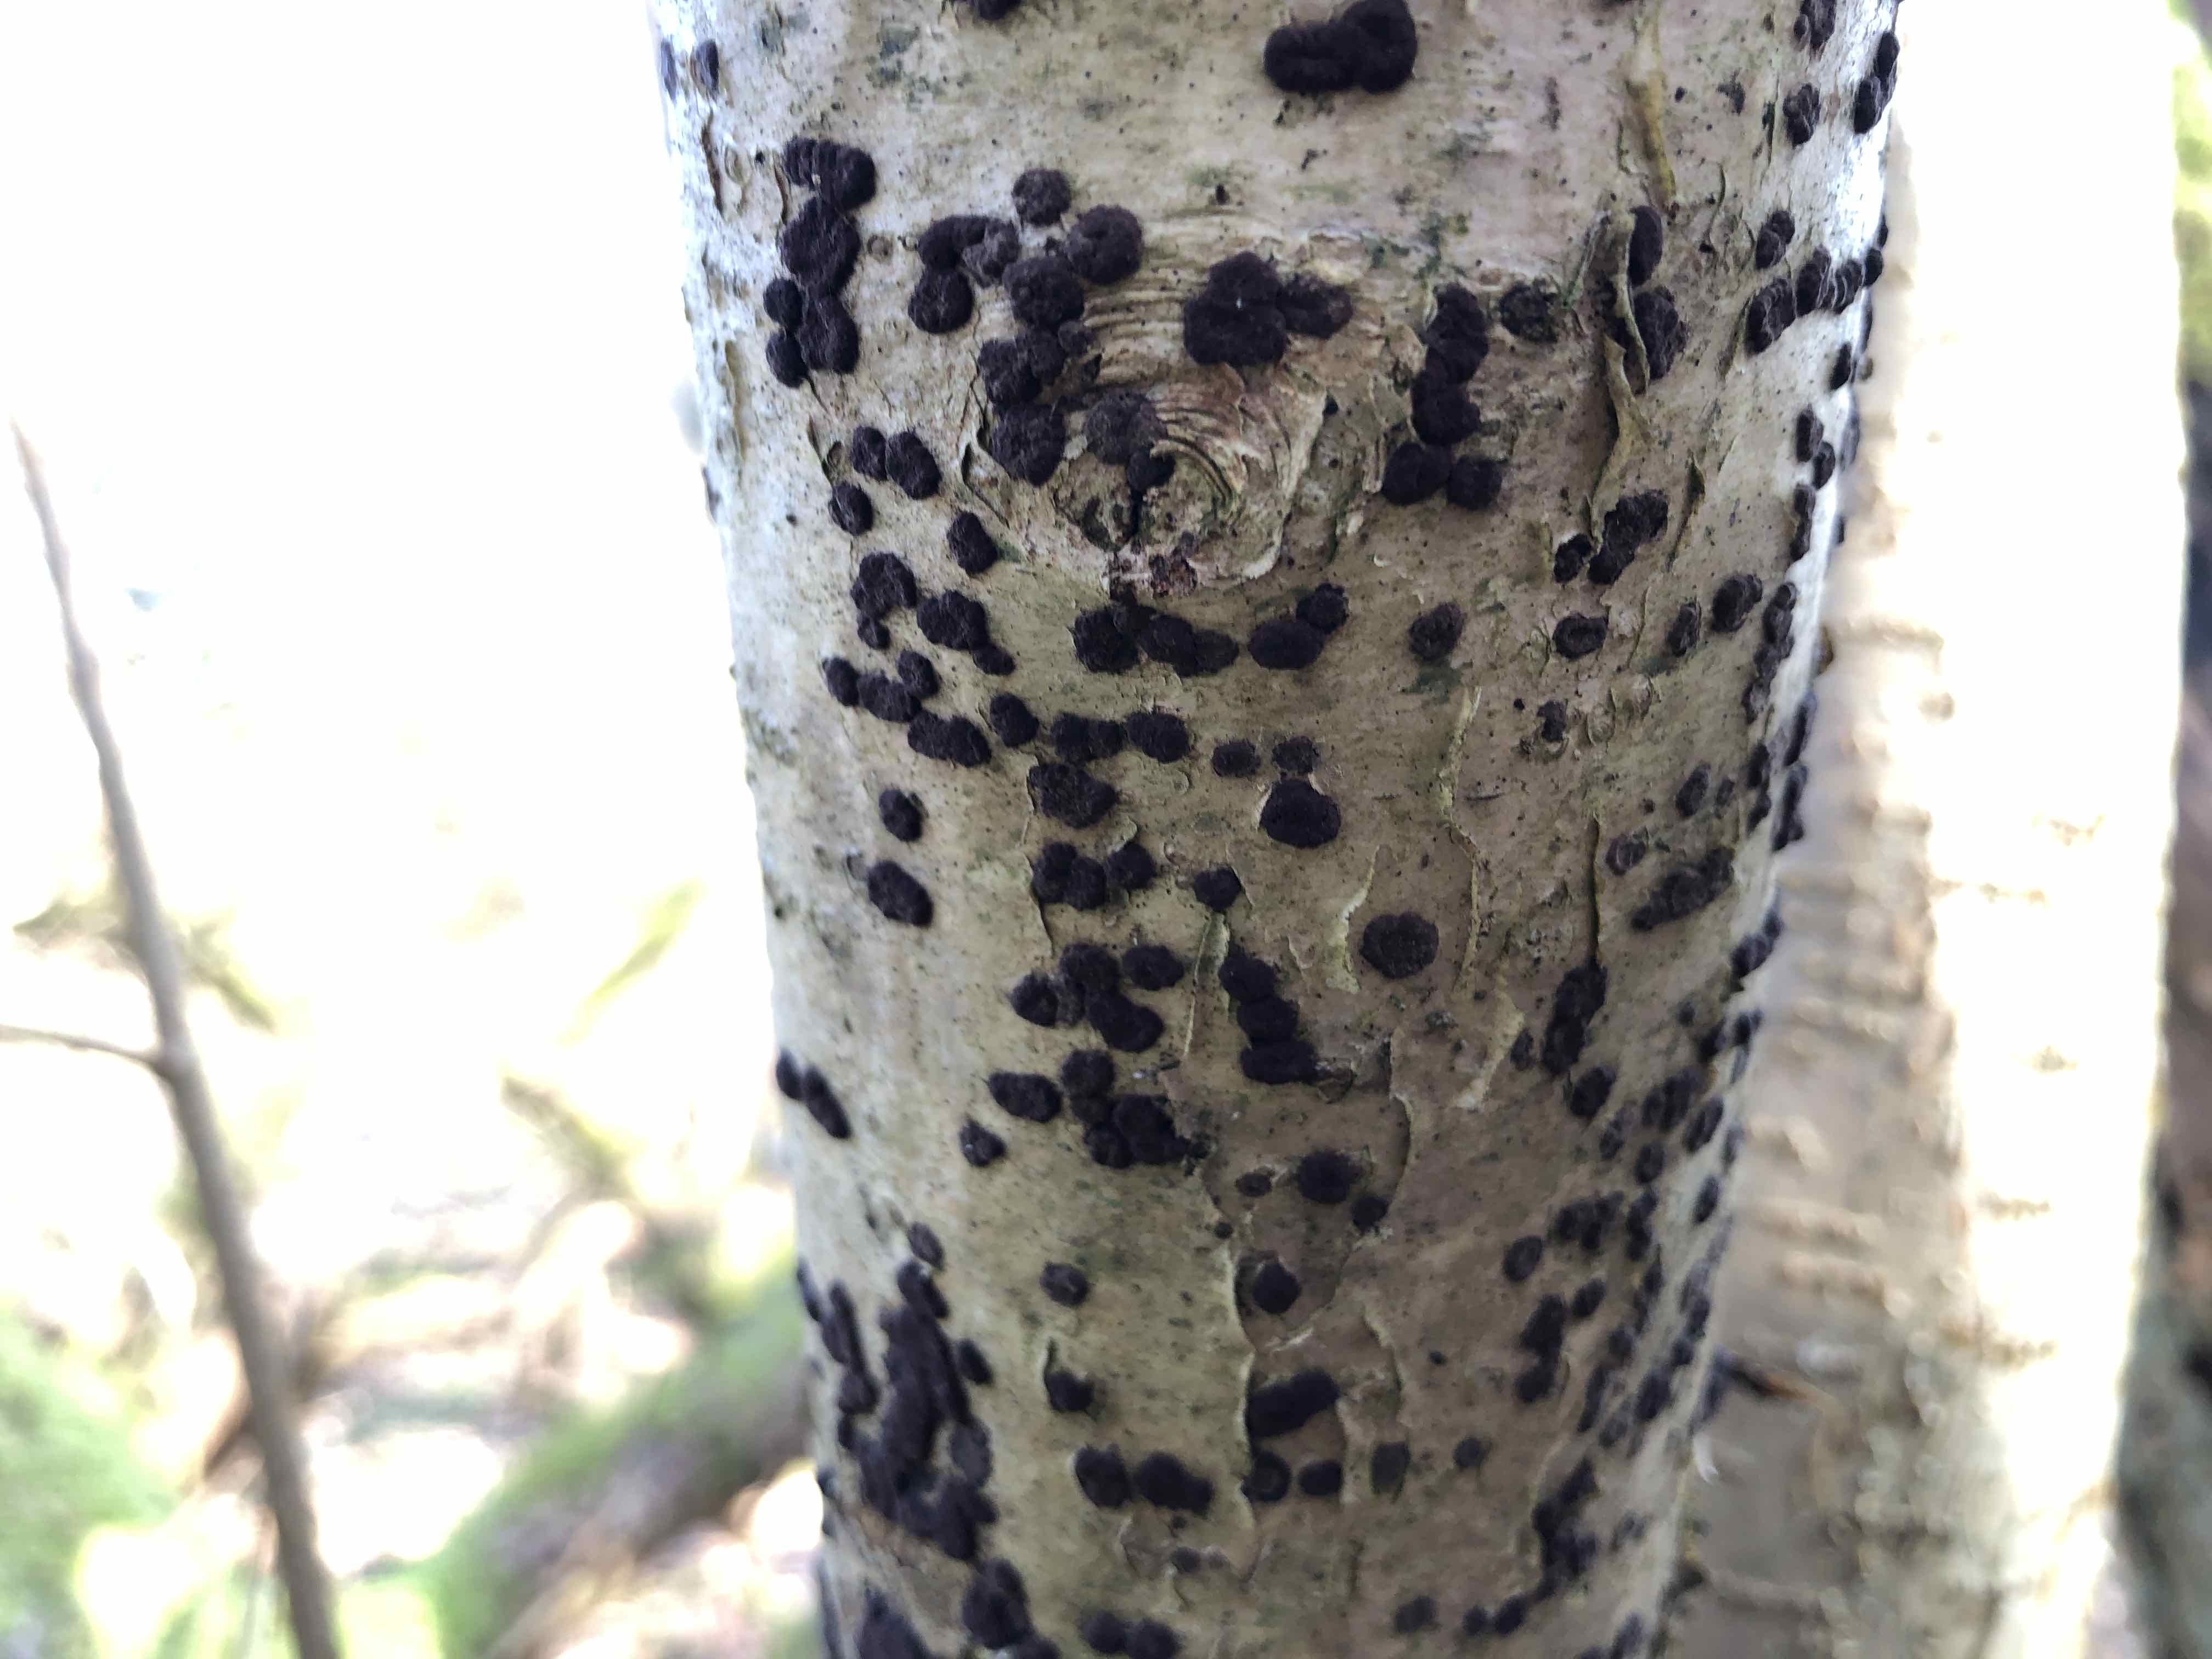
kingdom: Fungi
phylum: Ascomycota
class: Sordariomycetes
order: Xylariales
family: Hypoxylaceae
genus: Hypoxylon
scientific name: Hypoxylon fuscum
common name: kegleformet kulbær
